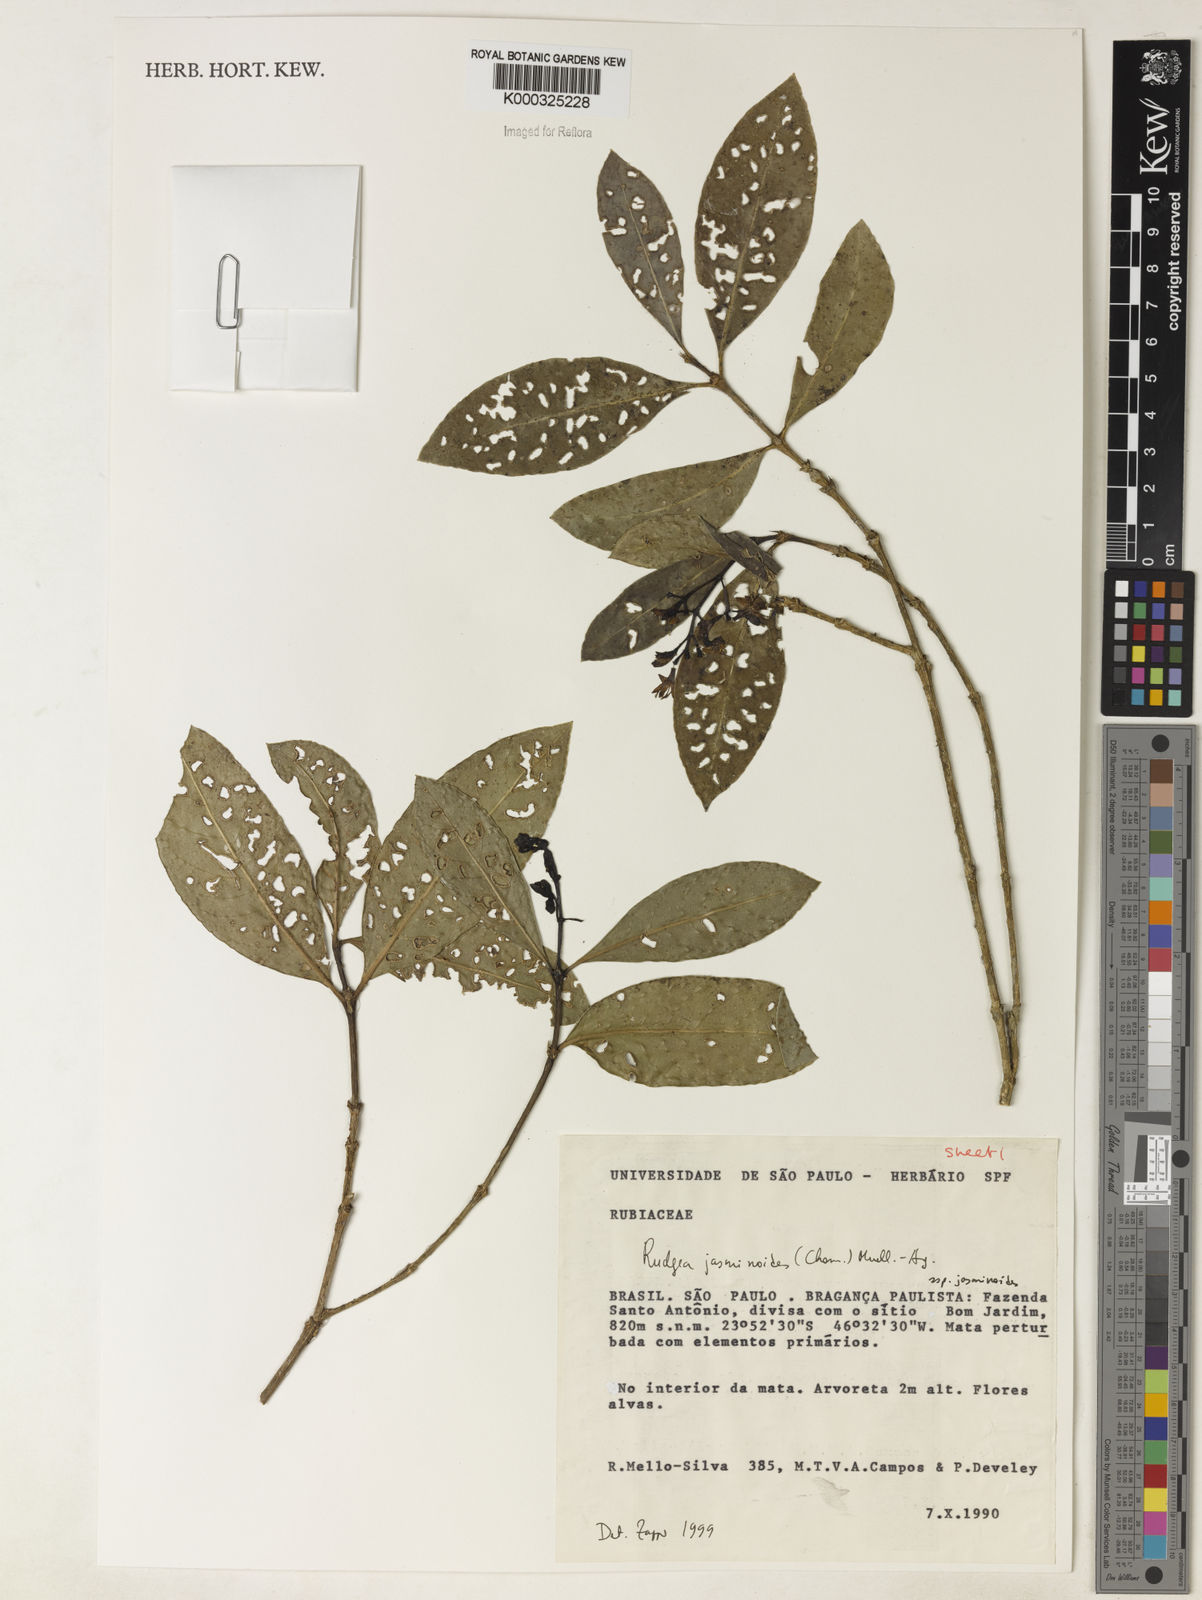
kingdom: Plantae
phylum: Tracheophyta
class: Magnoliopsida
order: Gentianales
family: Rubiaceae
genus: Rudgea
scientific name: Rudgea triflora
